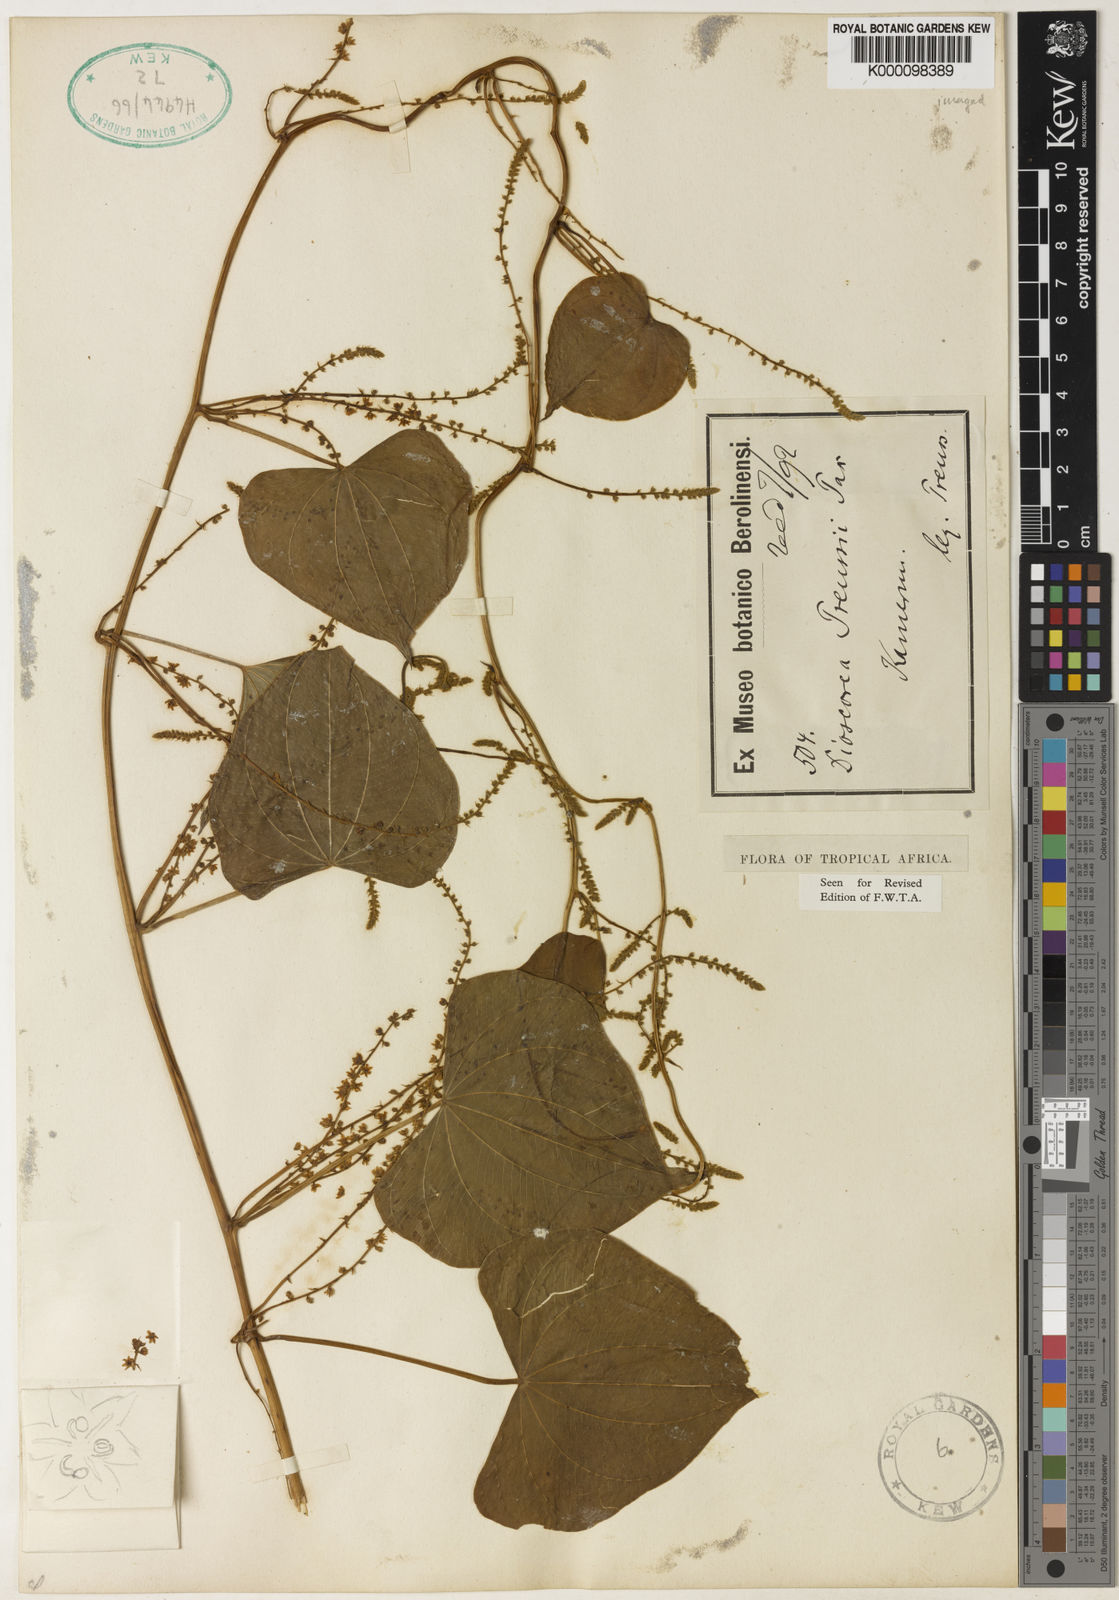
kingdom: Plantae
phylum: Tracheophyta
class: Liliopsida
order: Dioscoreales
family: Dioscoreaceae
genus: Dioscorea
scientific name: Dioscorea preussii
